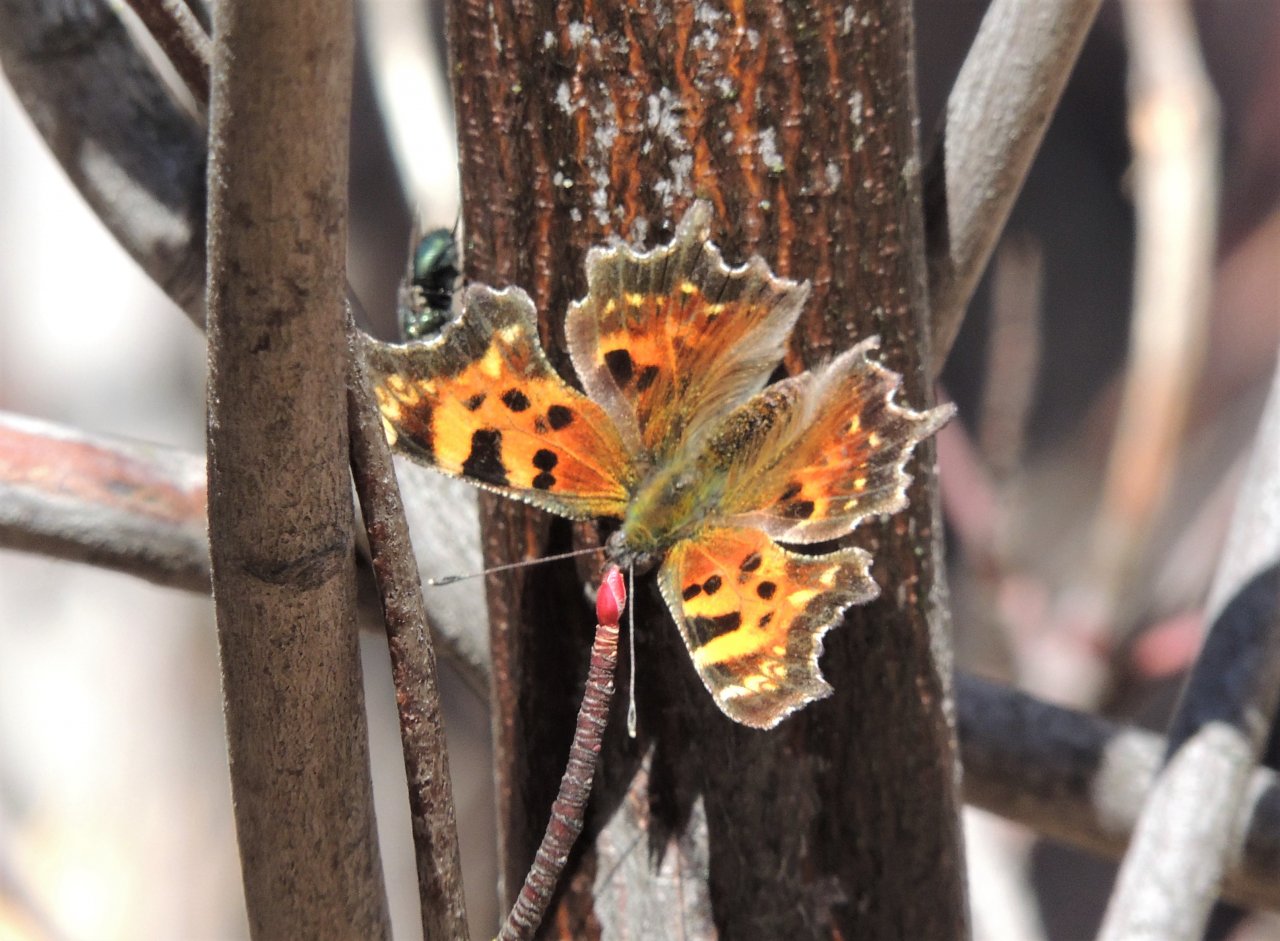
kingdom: Animalia
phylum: Arthropoda
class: Insecta
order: Lepidoptera
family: Nymphalidae
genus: Polygonia
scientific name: Polygonia faunus
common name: Green Comma
